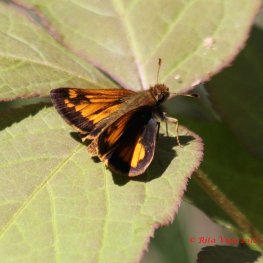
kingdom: Animalia
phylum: Arthropoda
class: Insecta
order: Lepidoptera
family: Hesperiidae
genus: Lon
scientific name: Lon hobomok
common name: Hobomok Skipper
